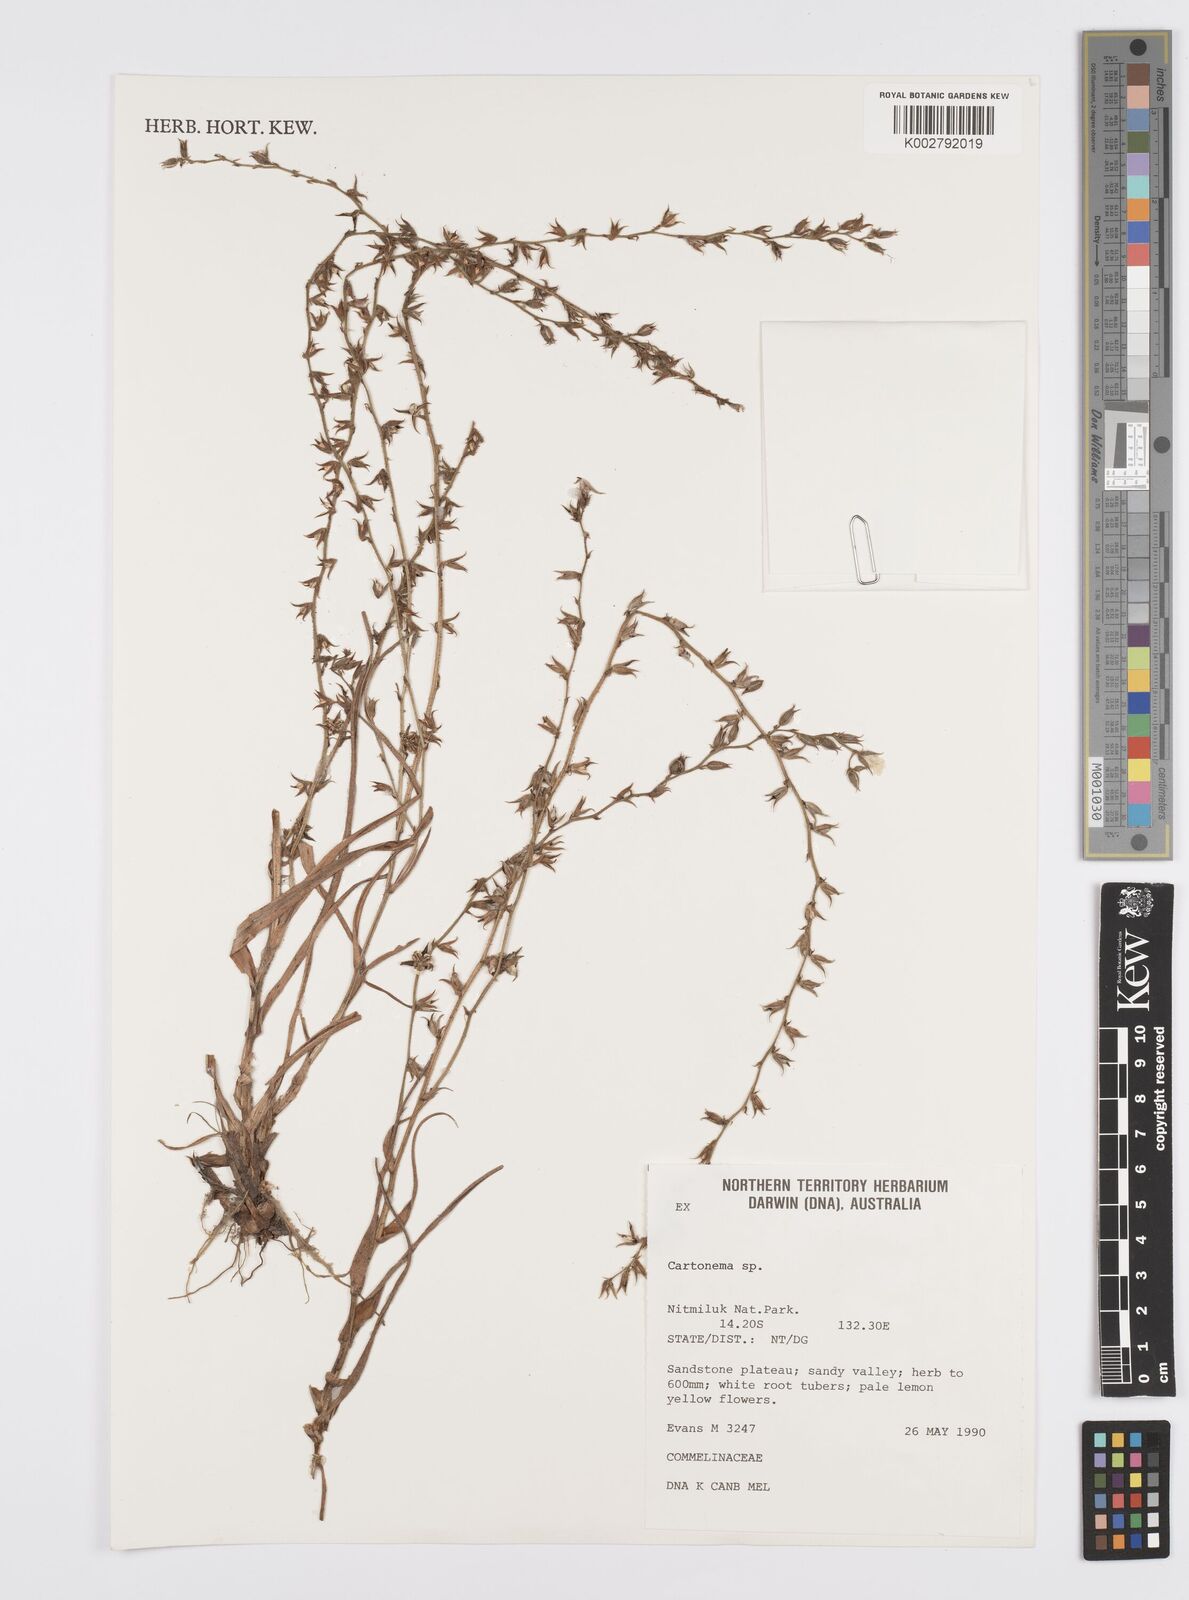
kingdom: Plantae
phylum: Tracheophyta
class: Liliopsida
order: Commelinales
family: Commelinaceae
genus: Cartonema
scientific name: Cartonema
